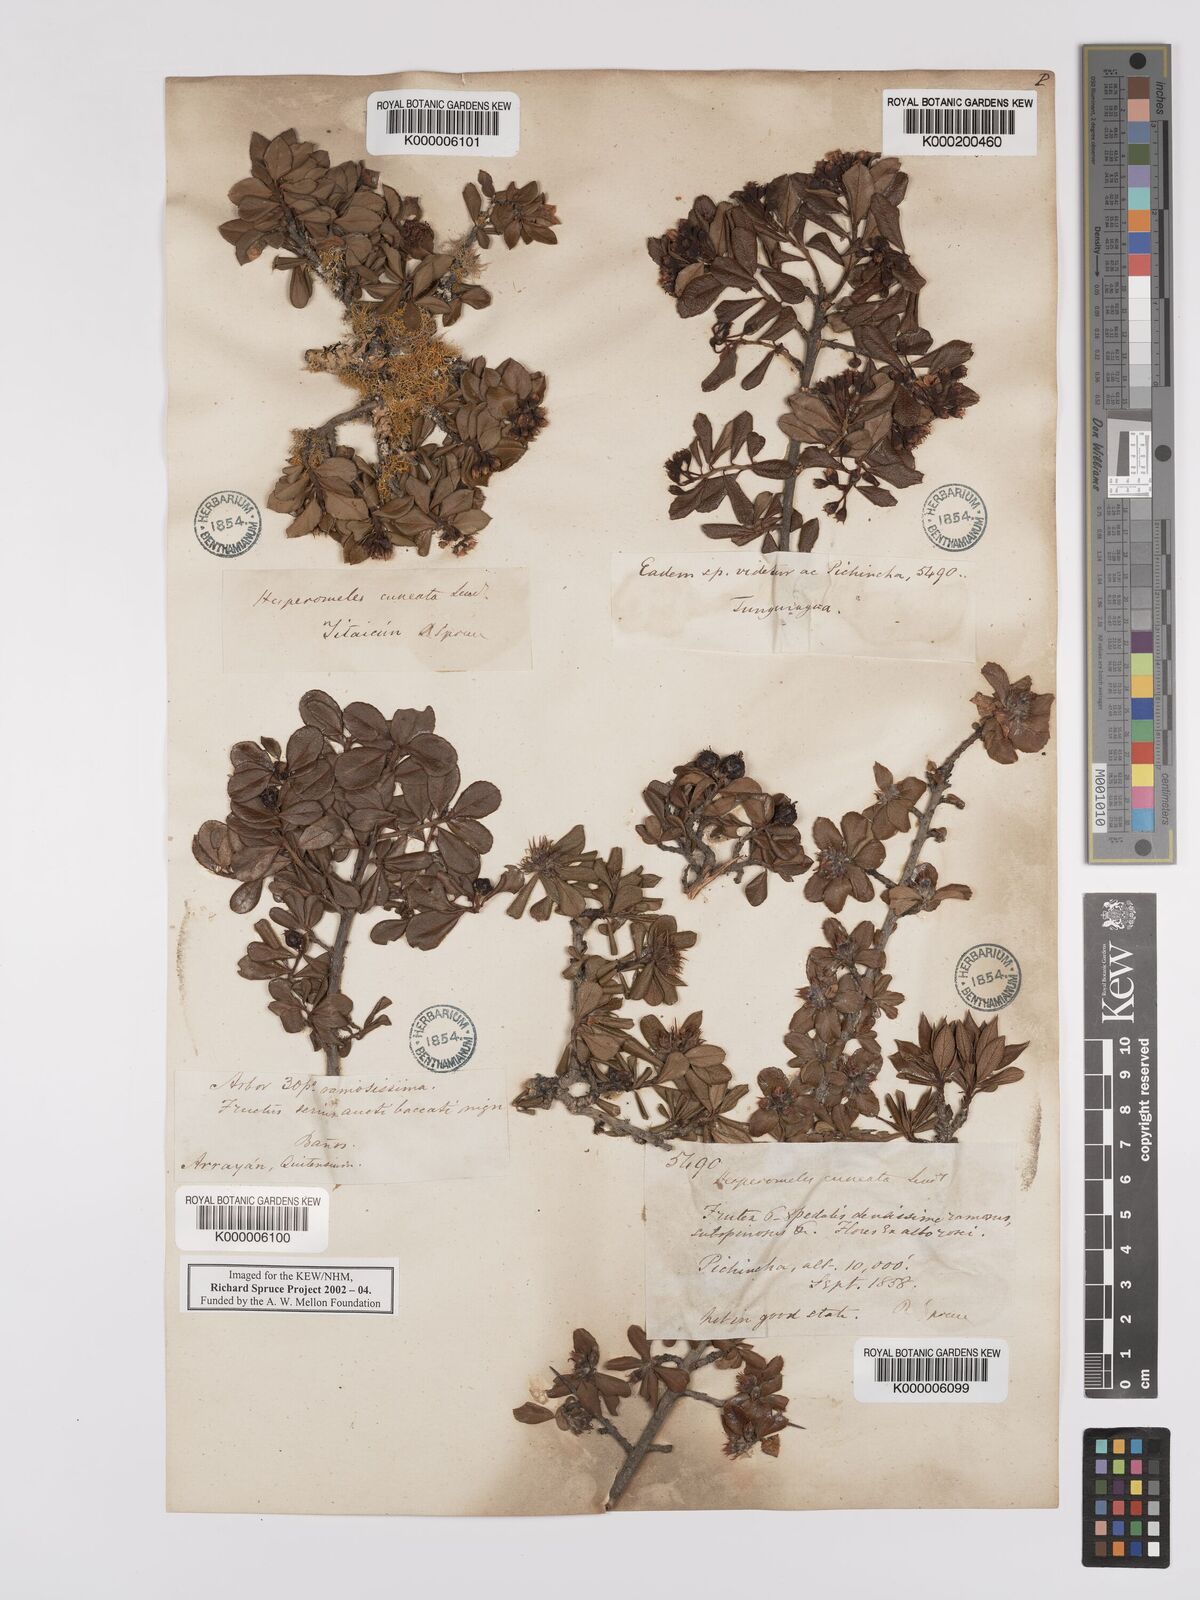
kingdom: Plantae
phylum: Tracheophyta
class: Magnoliopsida
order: Rosales
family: Rosaceae
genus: Hesperomeles
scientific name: Hesperomeles cuneata
